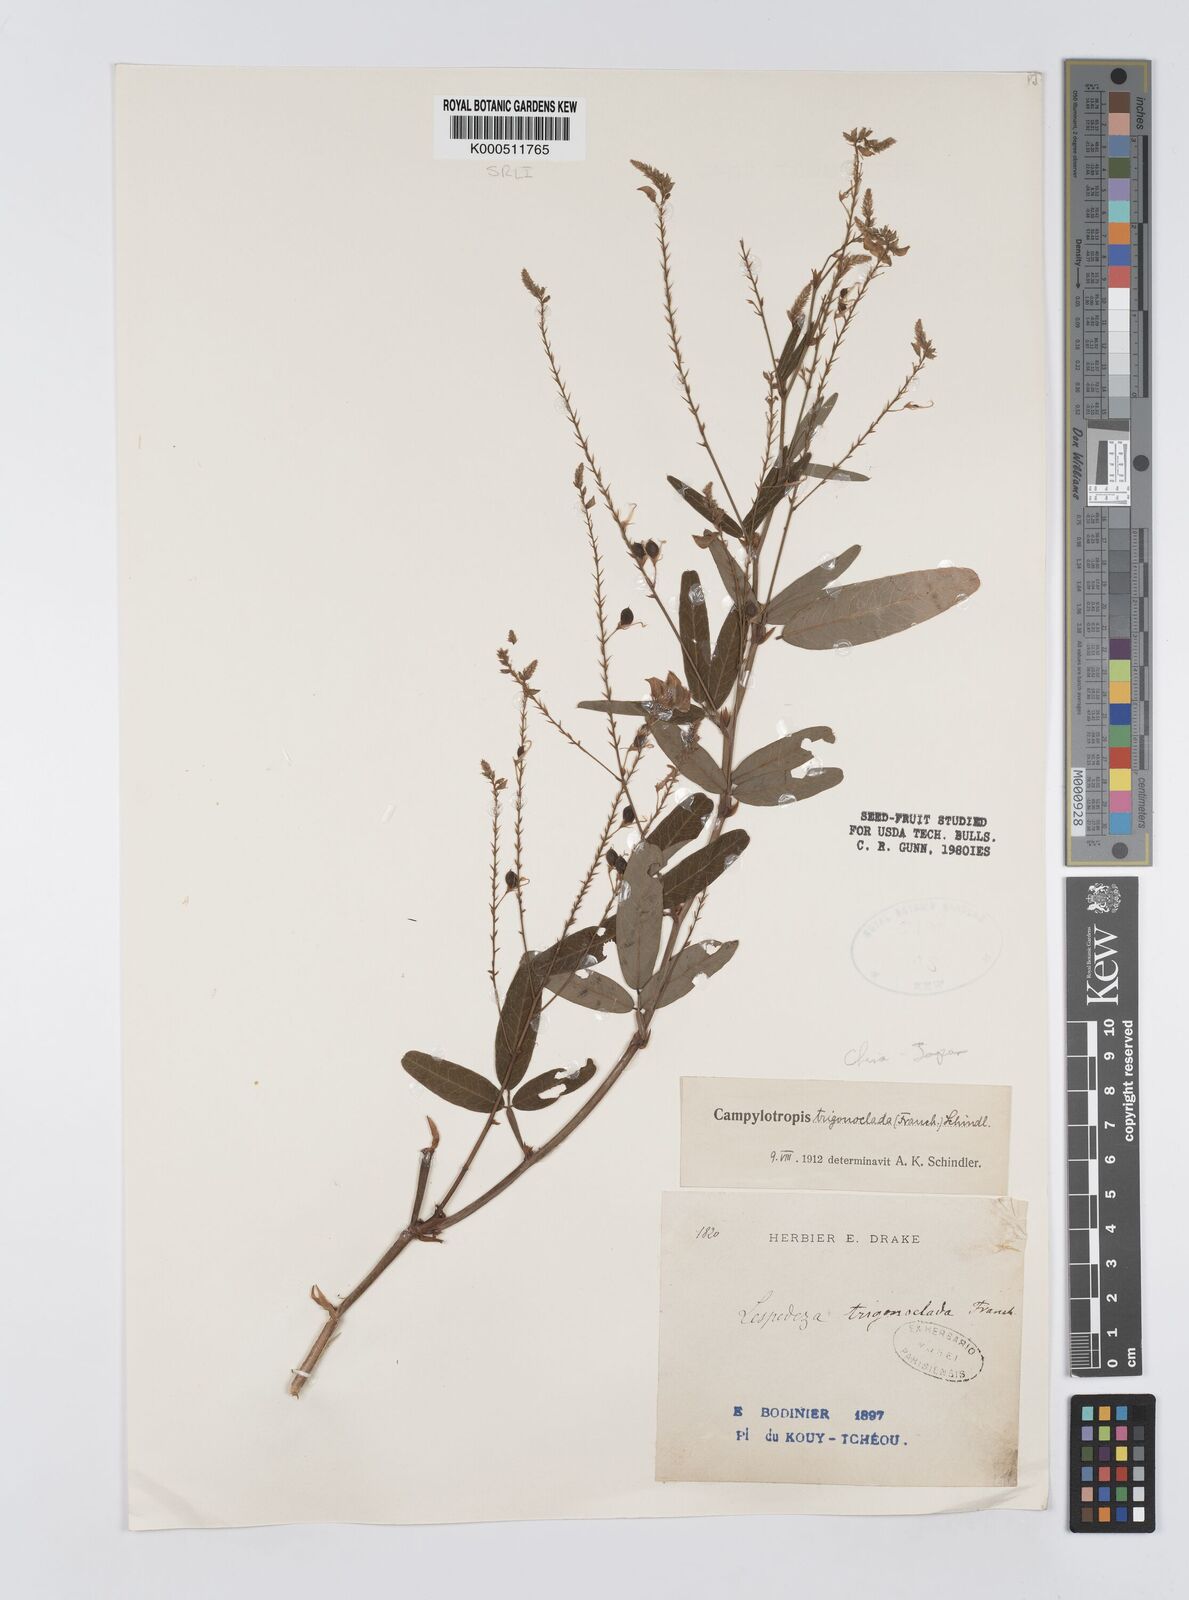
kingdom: Plantae
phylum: Tracheophyta
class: Magnoliopsida
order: Fabales
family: Fabaceae
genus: Campylotropis
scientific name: Campylotropis trigonoclada
